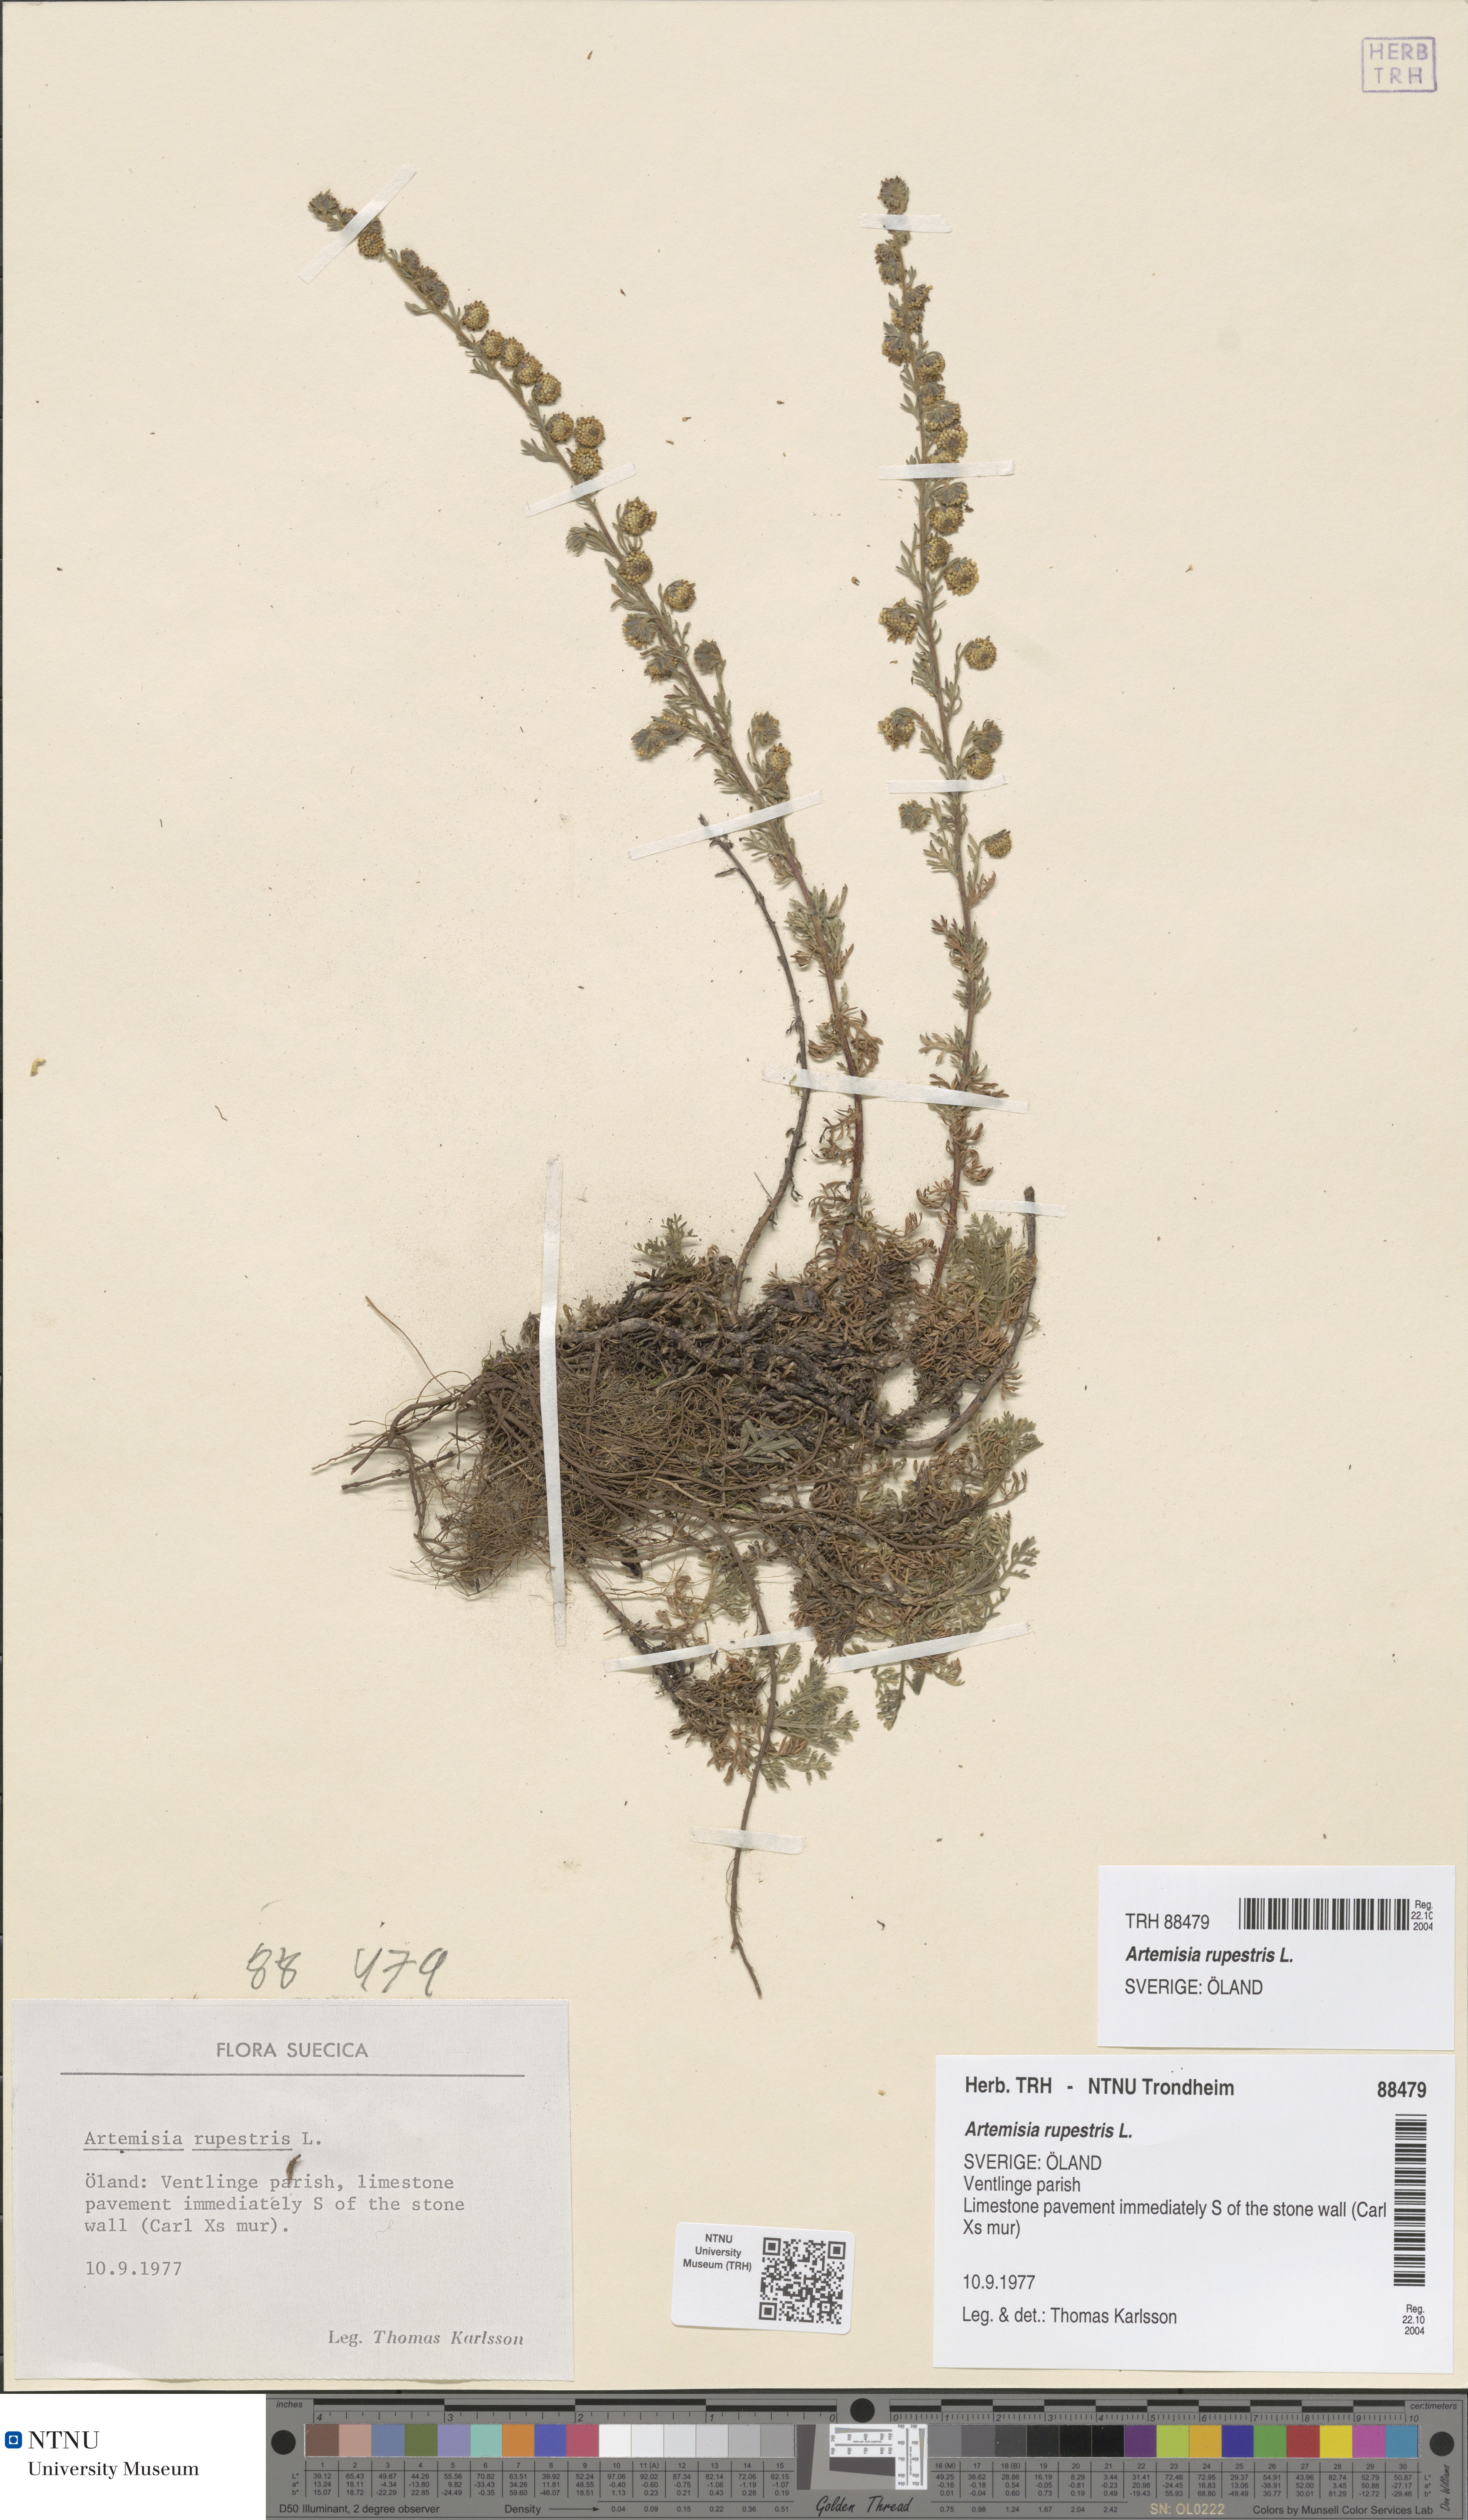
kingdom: Plantae
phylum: Tracheophyta
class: Magnoliopsida
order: Asterales
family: Asteraceae
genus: Artemisia
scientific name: Artemisia rupestris
